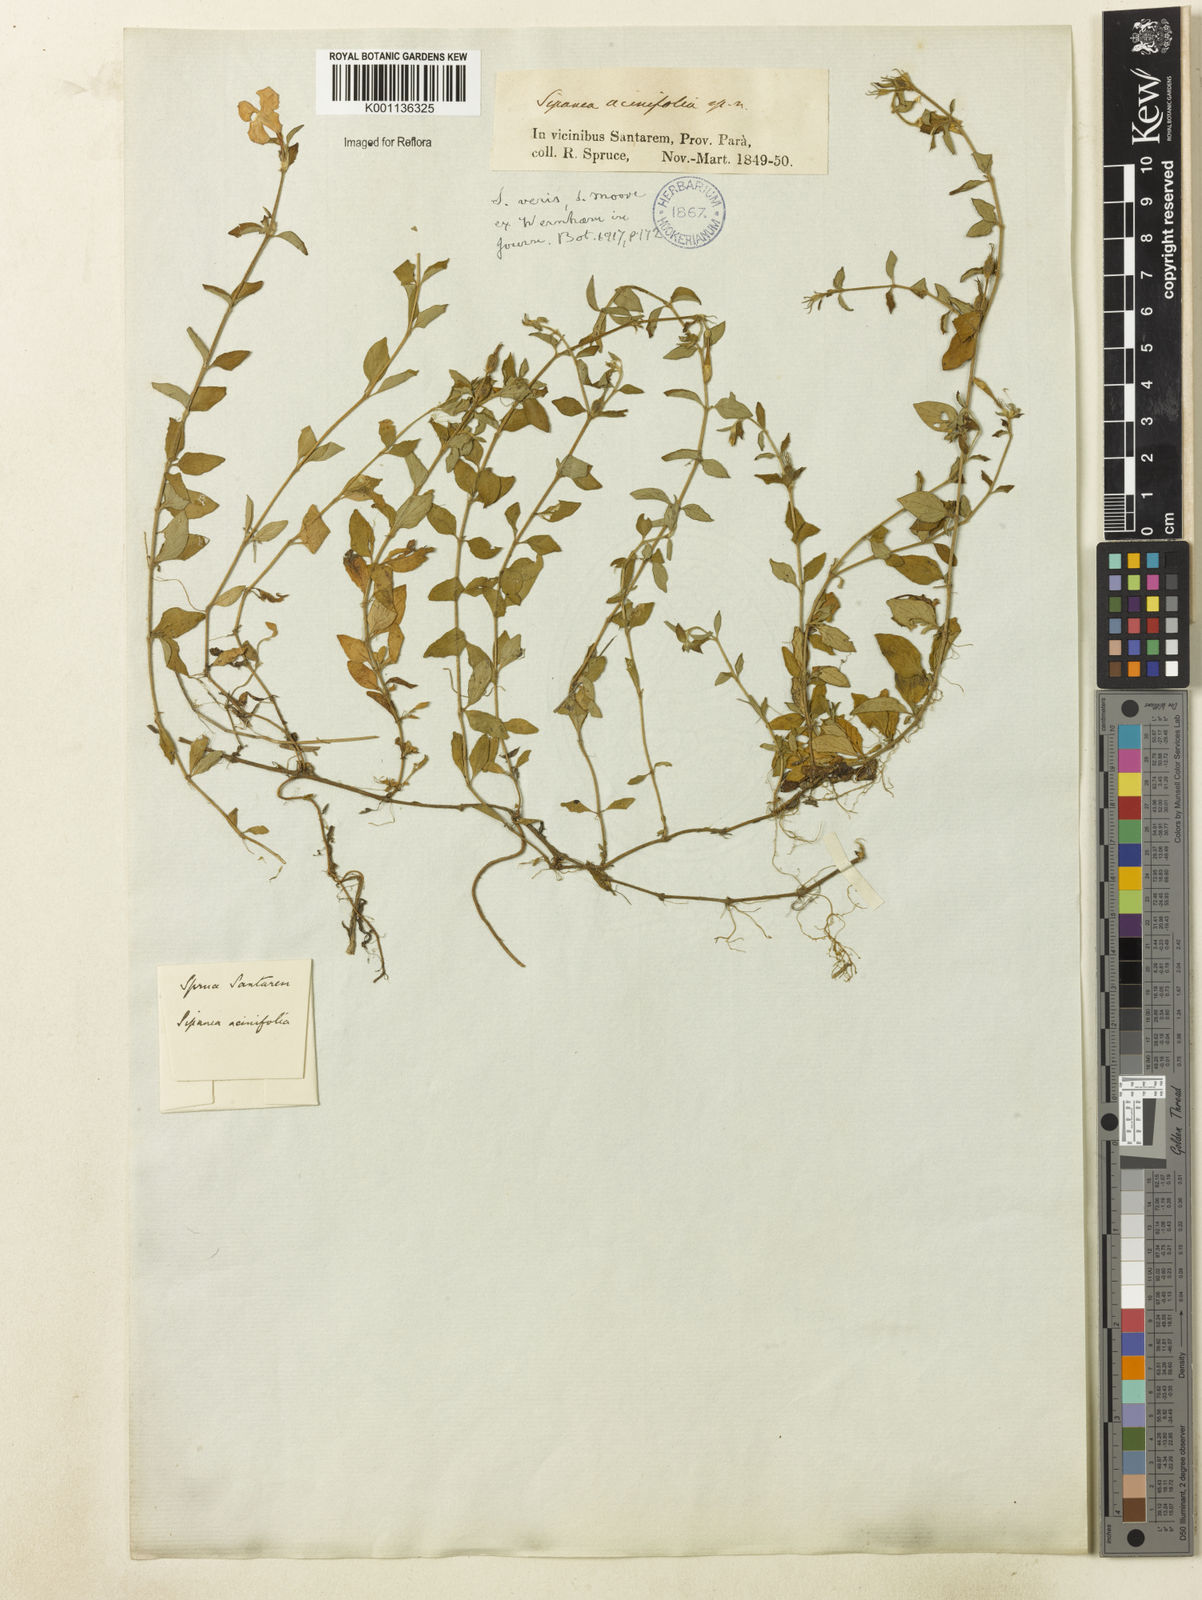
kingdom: Plantae
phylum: Tracheophyta
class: Magnoliopsida
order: Gentianales
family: Rubiaceae
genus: Sipanea
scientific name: Sipanea veris
